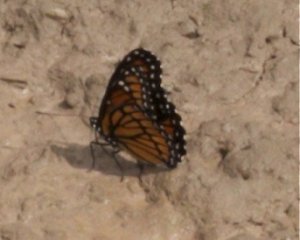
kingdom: Animalia
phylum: Arthropoda
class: Insecta
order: Lepidoptera
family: Nymphalidae
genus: Limenitis
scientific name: Limenitis archippus
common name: Viceroy
